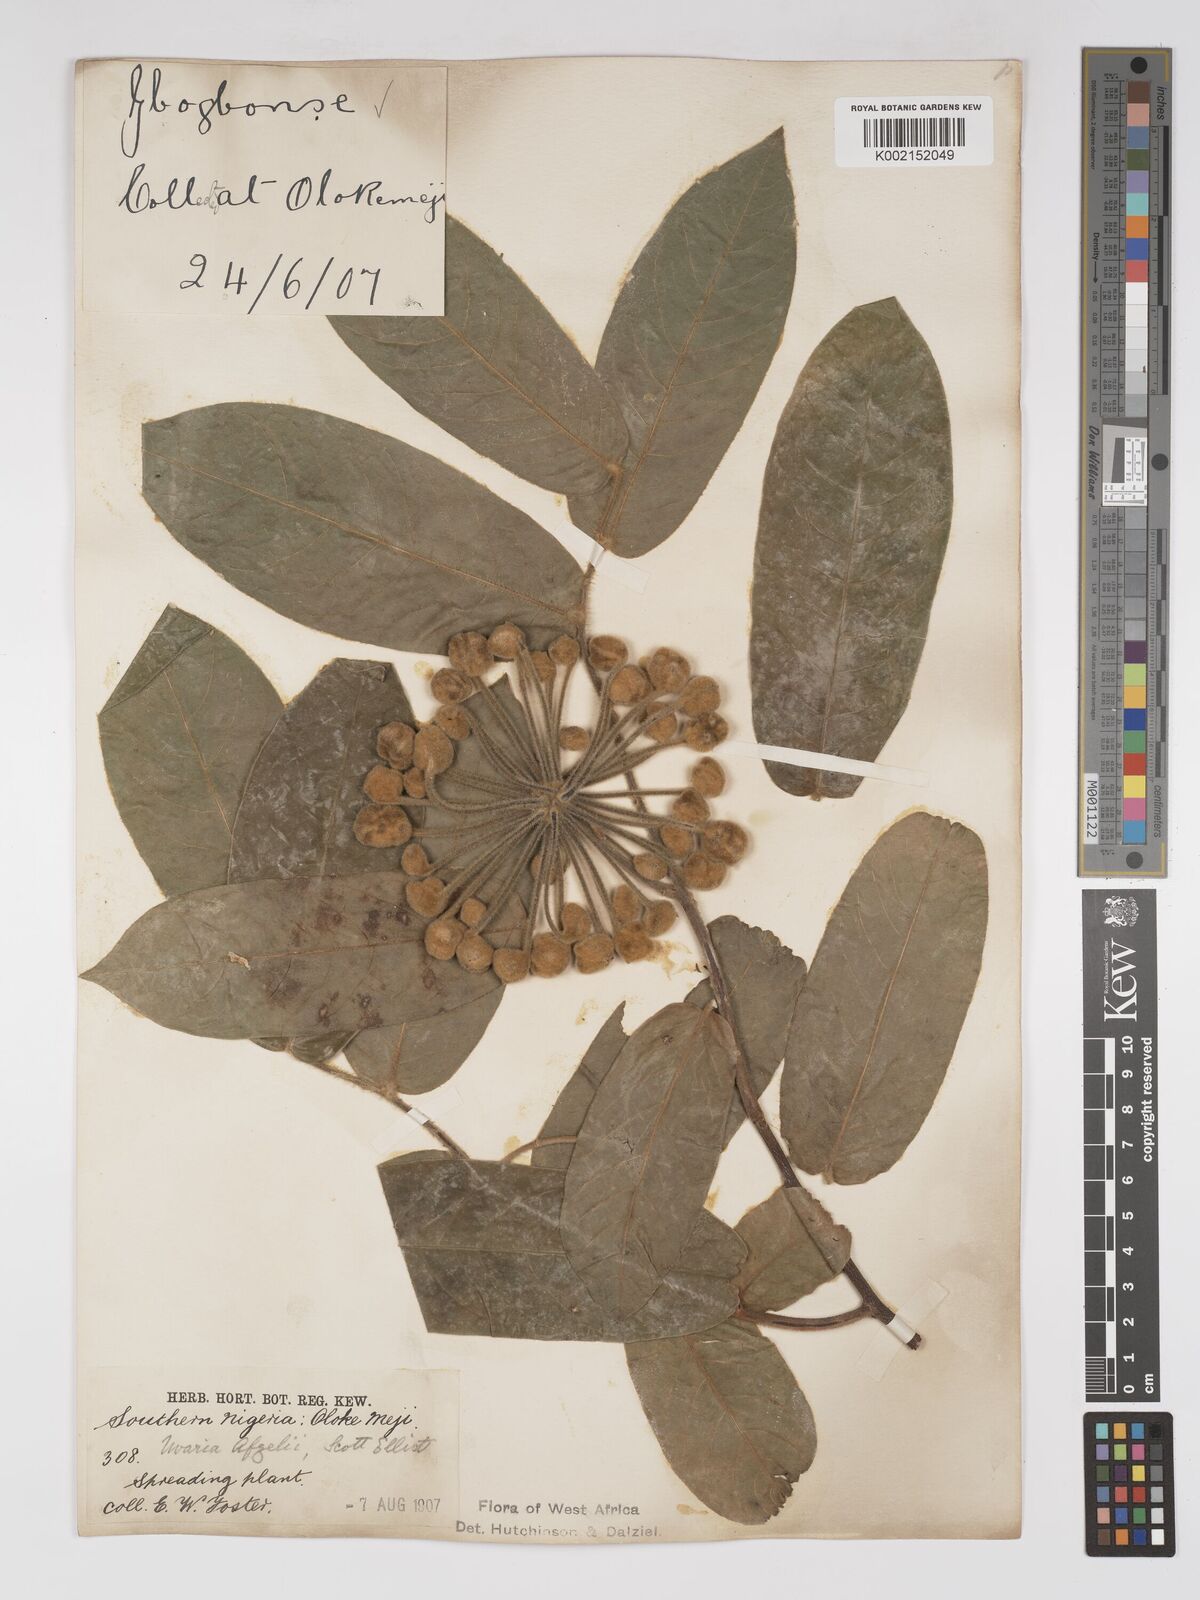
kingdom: Plantae
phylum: Tracheophyta
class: Magnoliopsida
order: Magnoliales
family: Annonaceae
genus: Uvaria
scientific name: Uvaria afzelii
